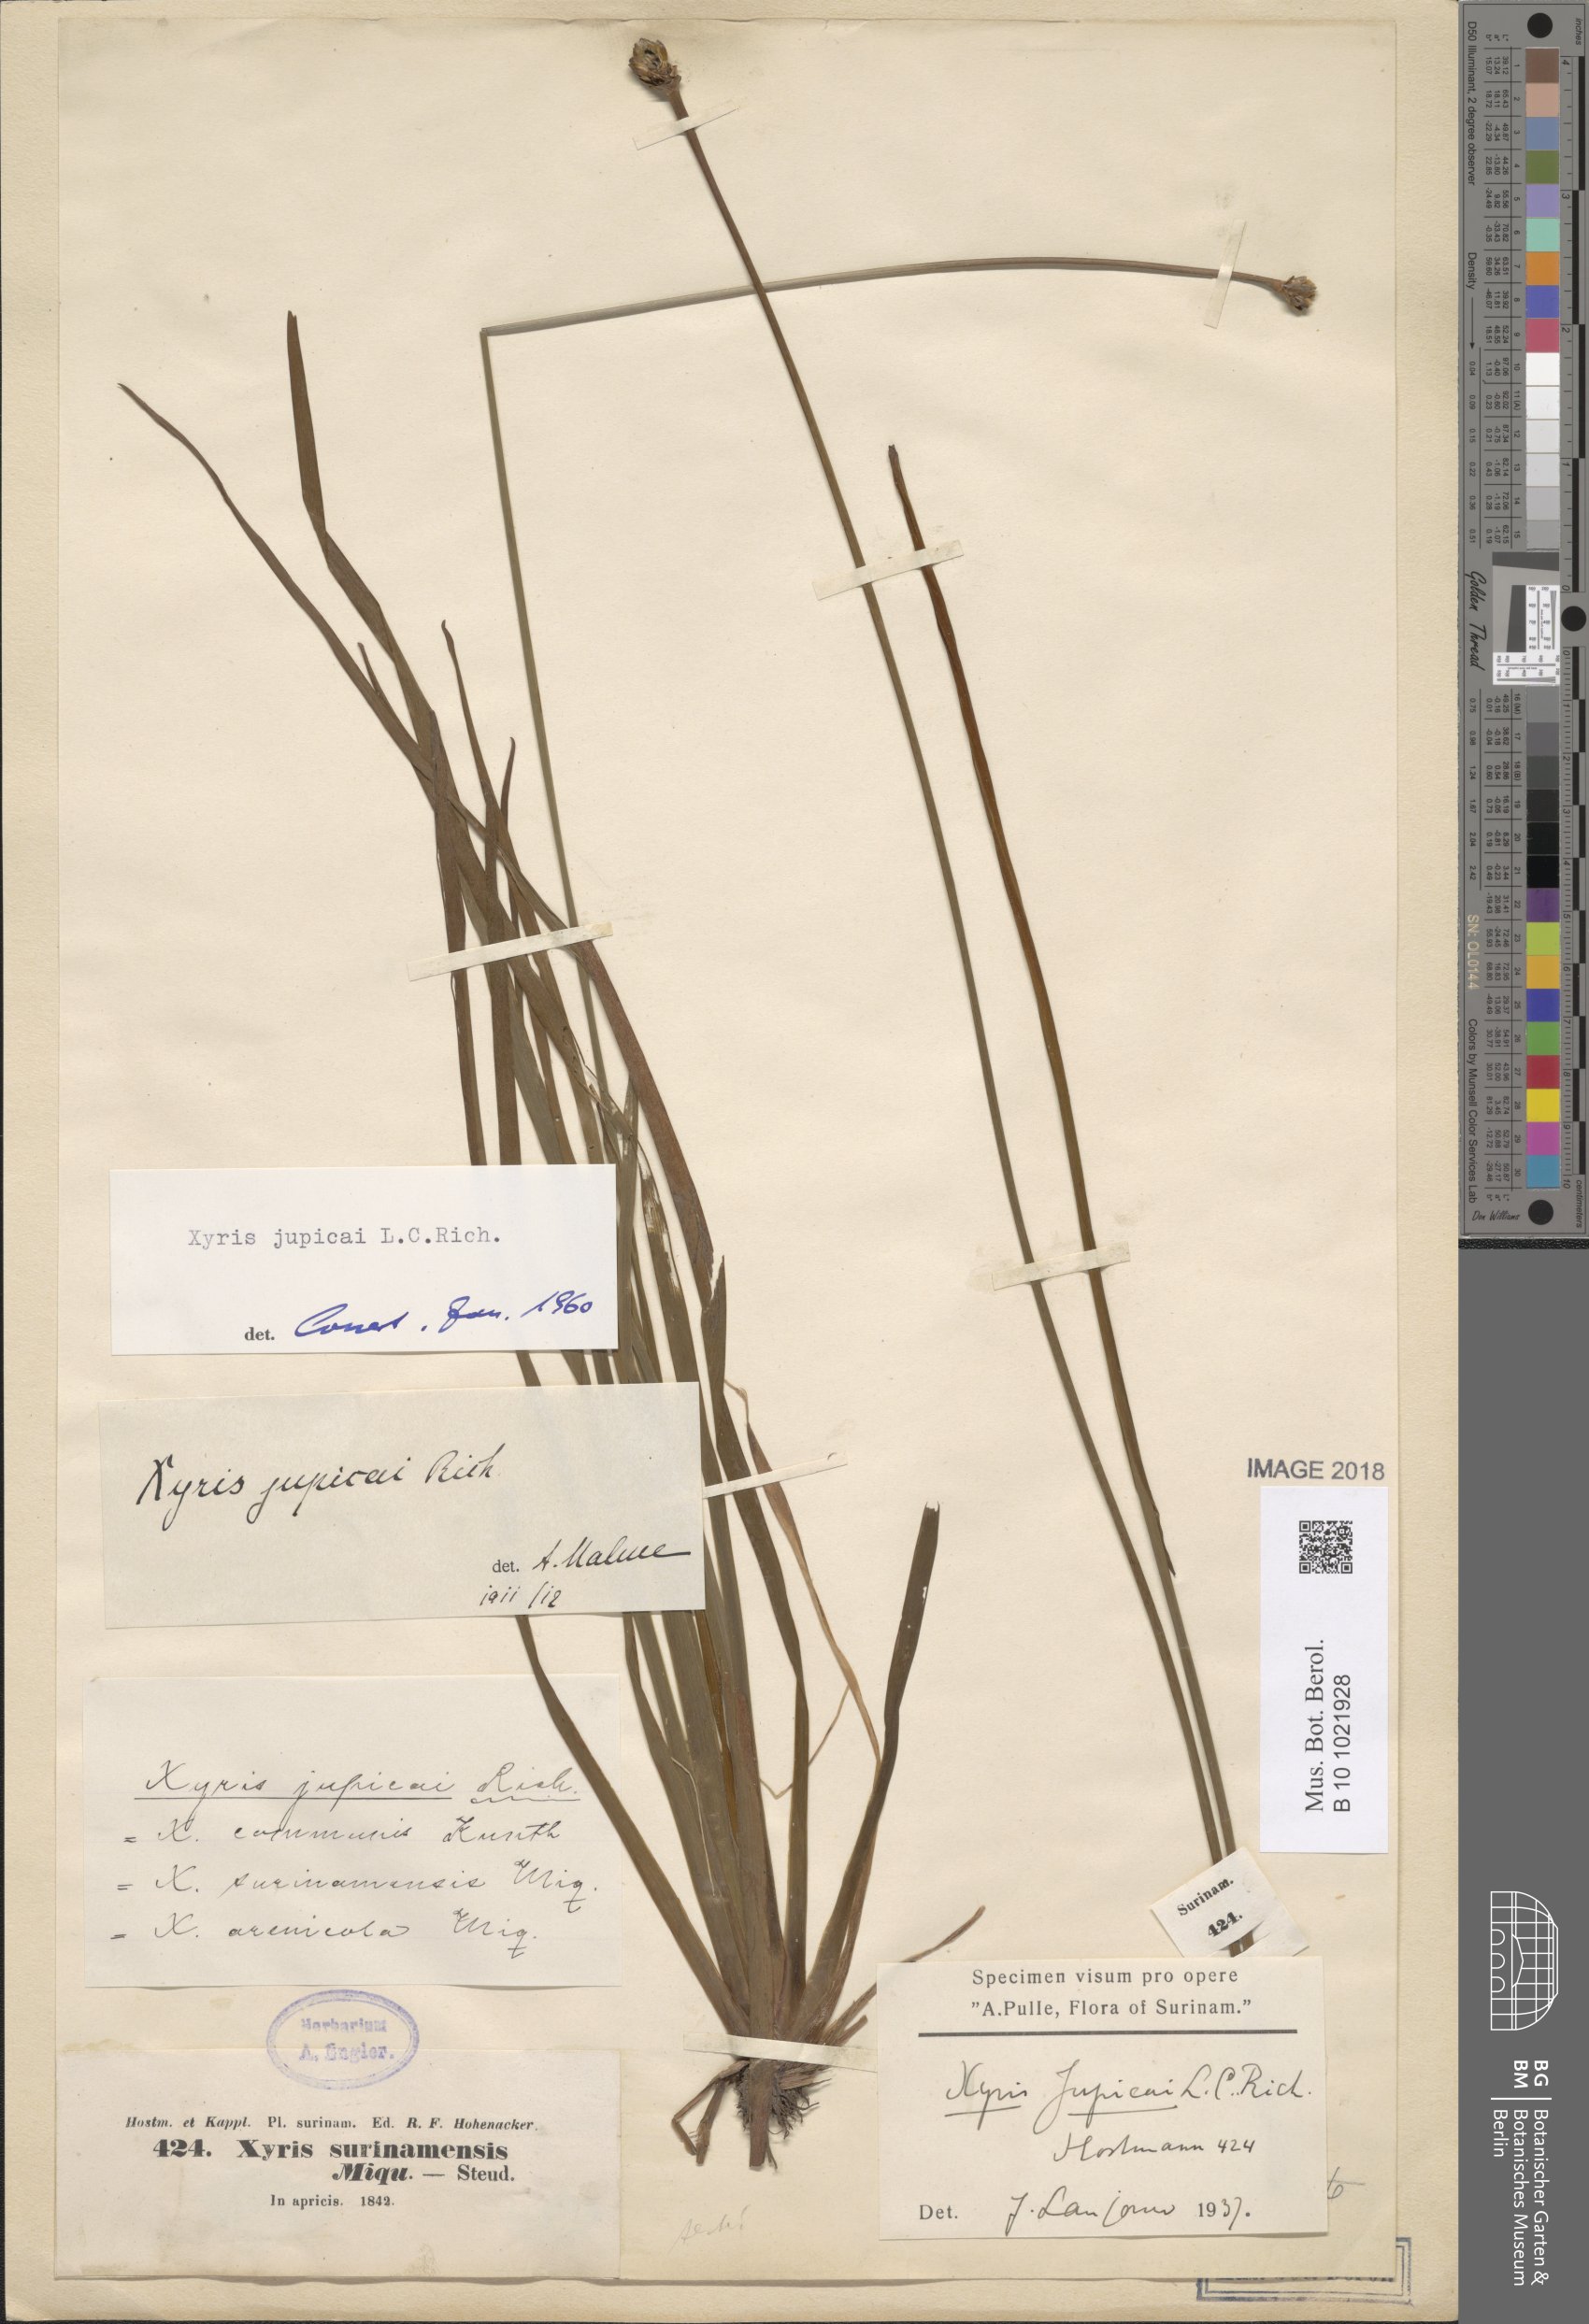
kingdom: Plantae
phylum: Tracheophyta
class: Liliopsida
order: Poales
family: Xyridaceae
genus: Xyris
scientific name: Xyris jupicai
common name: Richard's yelloweyed grass
